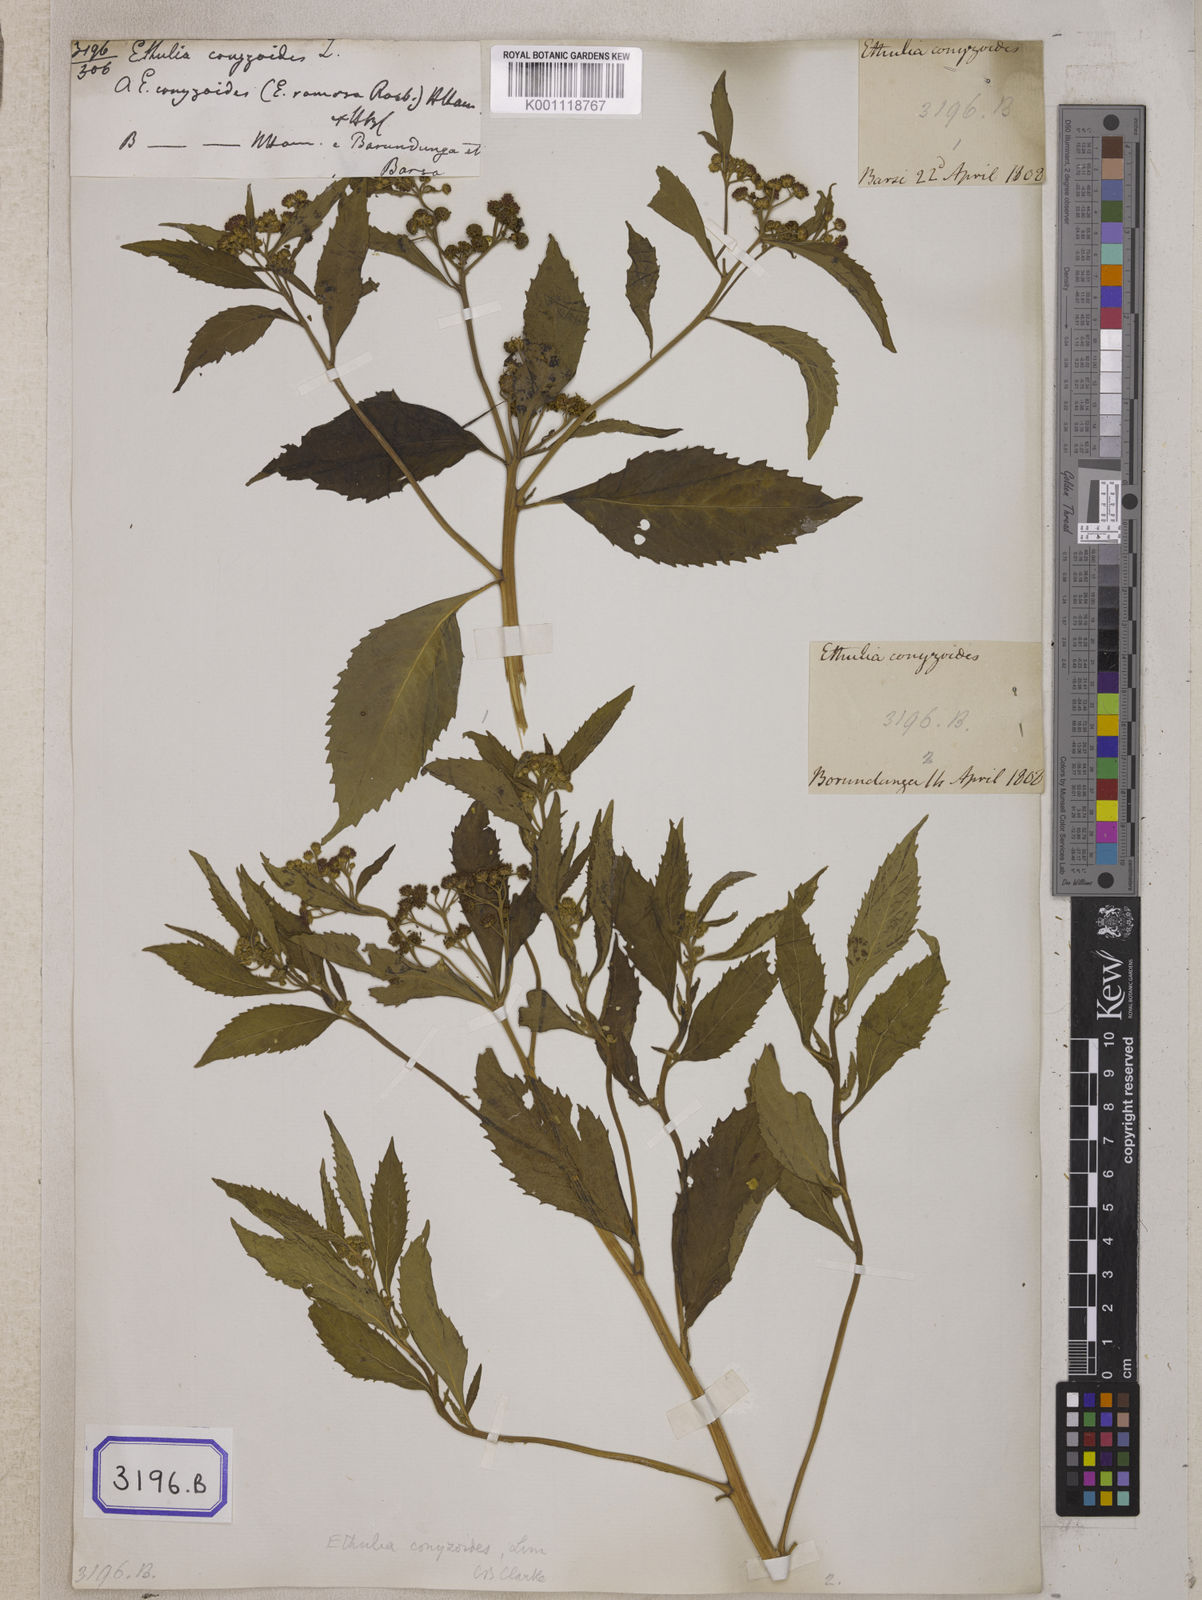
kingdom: Plantae
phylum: Tracheophyta
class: Magnoliopsida
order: Asterales
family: Asteraceae
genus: Ethulia
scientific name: Ethulia conyzoides
